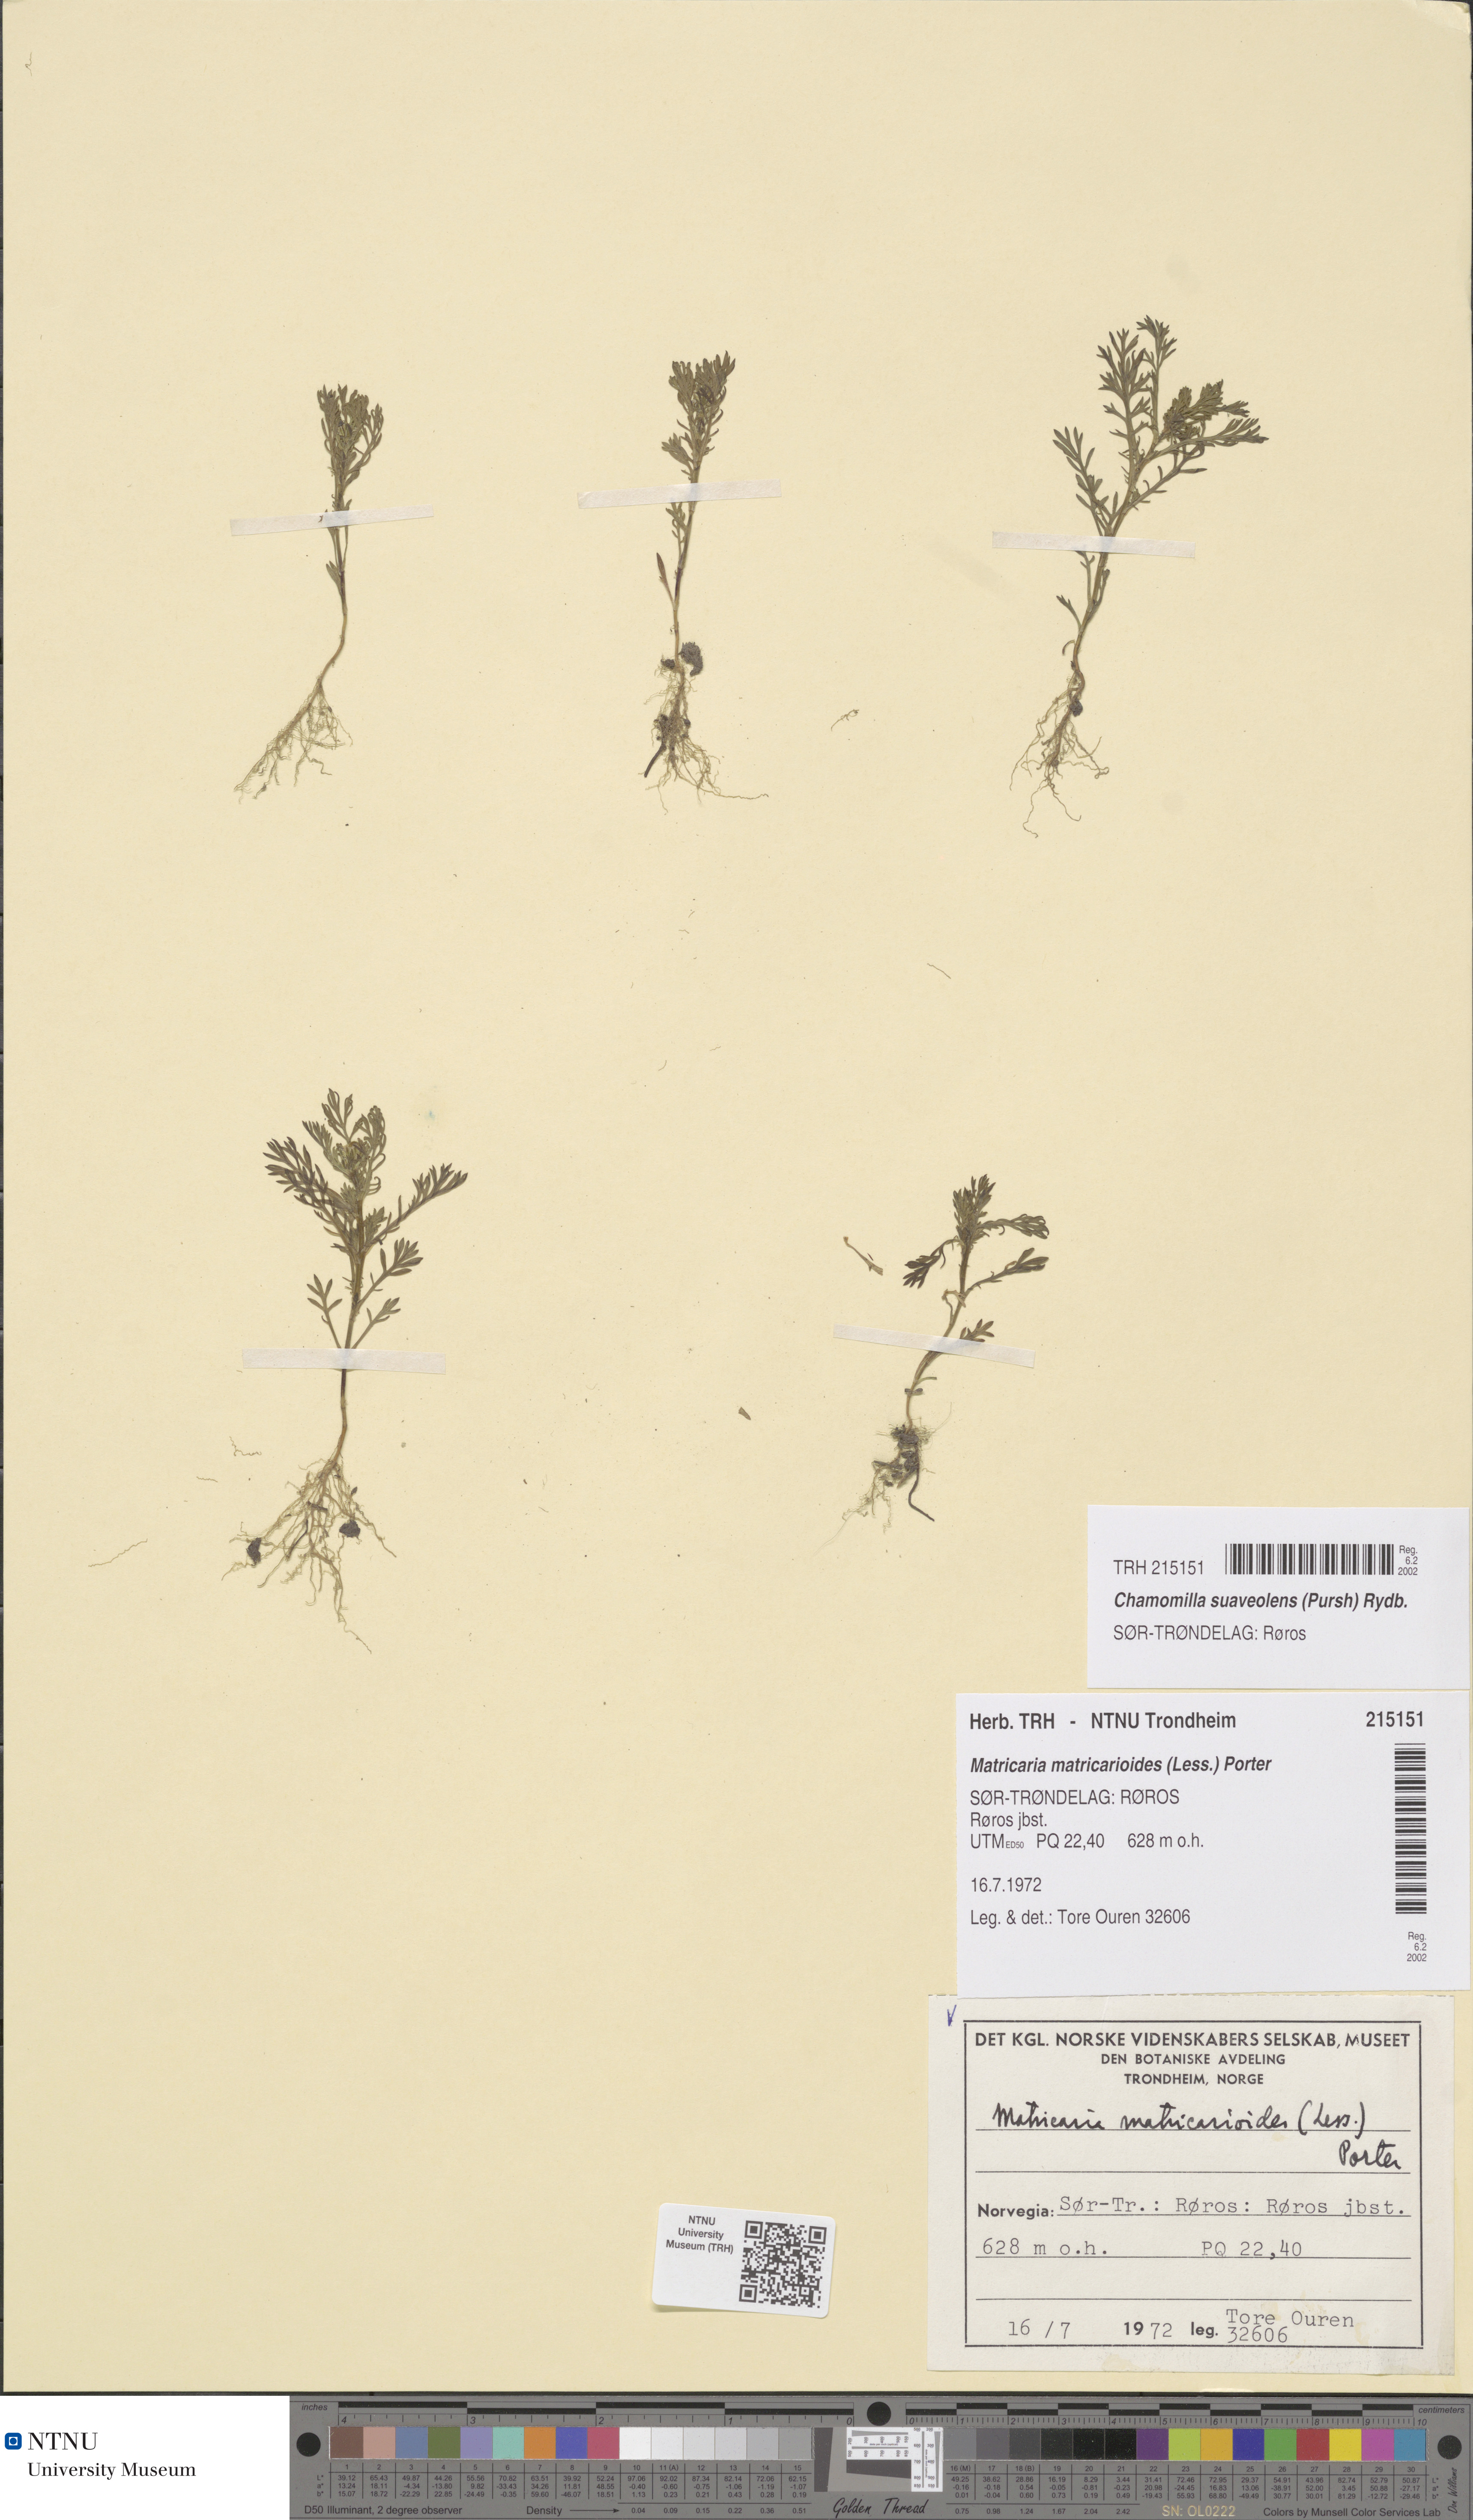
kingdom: Plantae
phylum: Tracheophyta
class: Magnoliopsida
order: Asterales
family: Asteraceae
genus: Matricaria
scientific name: Matricaria discoidea
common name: Disc mayweed
